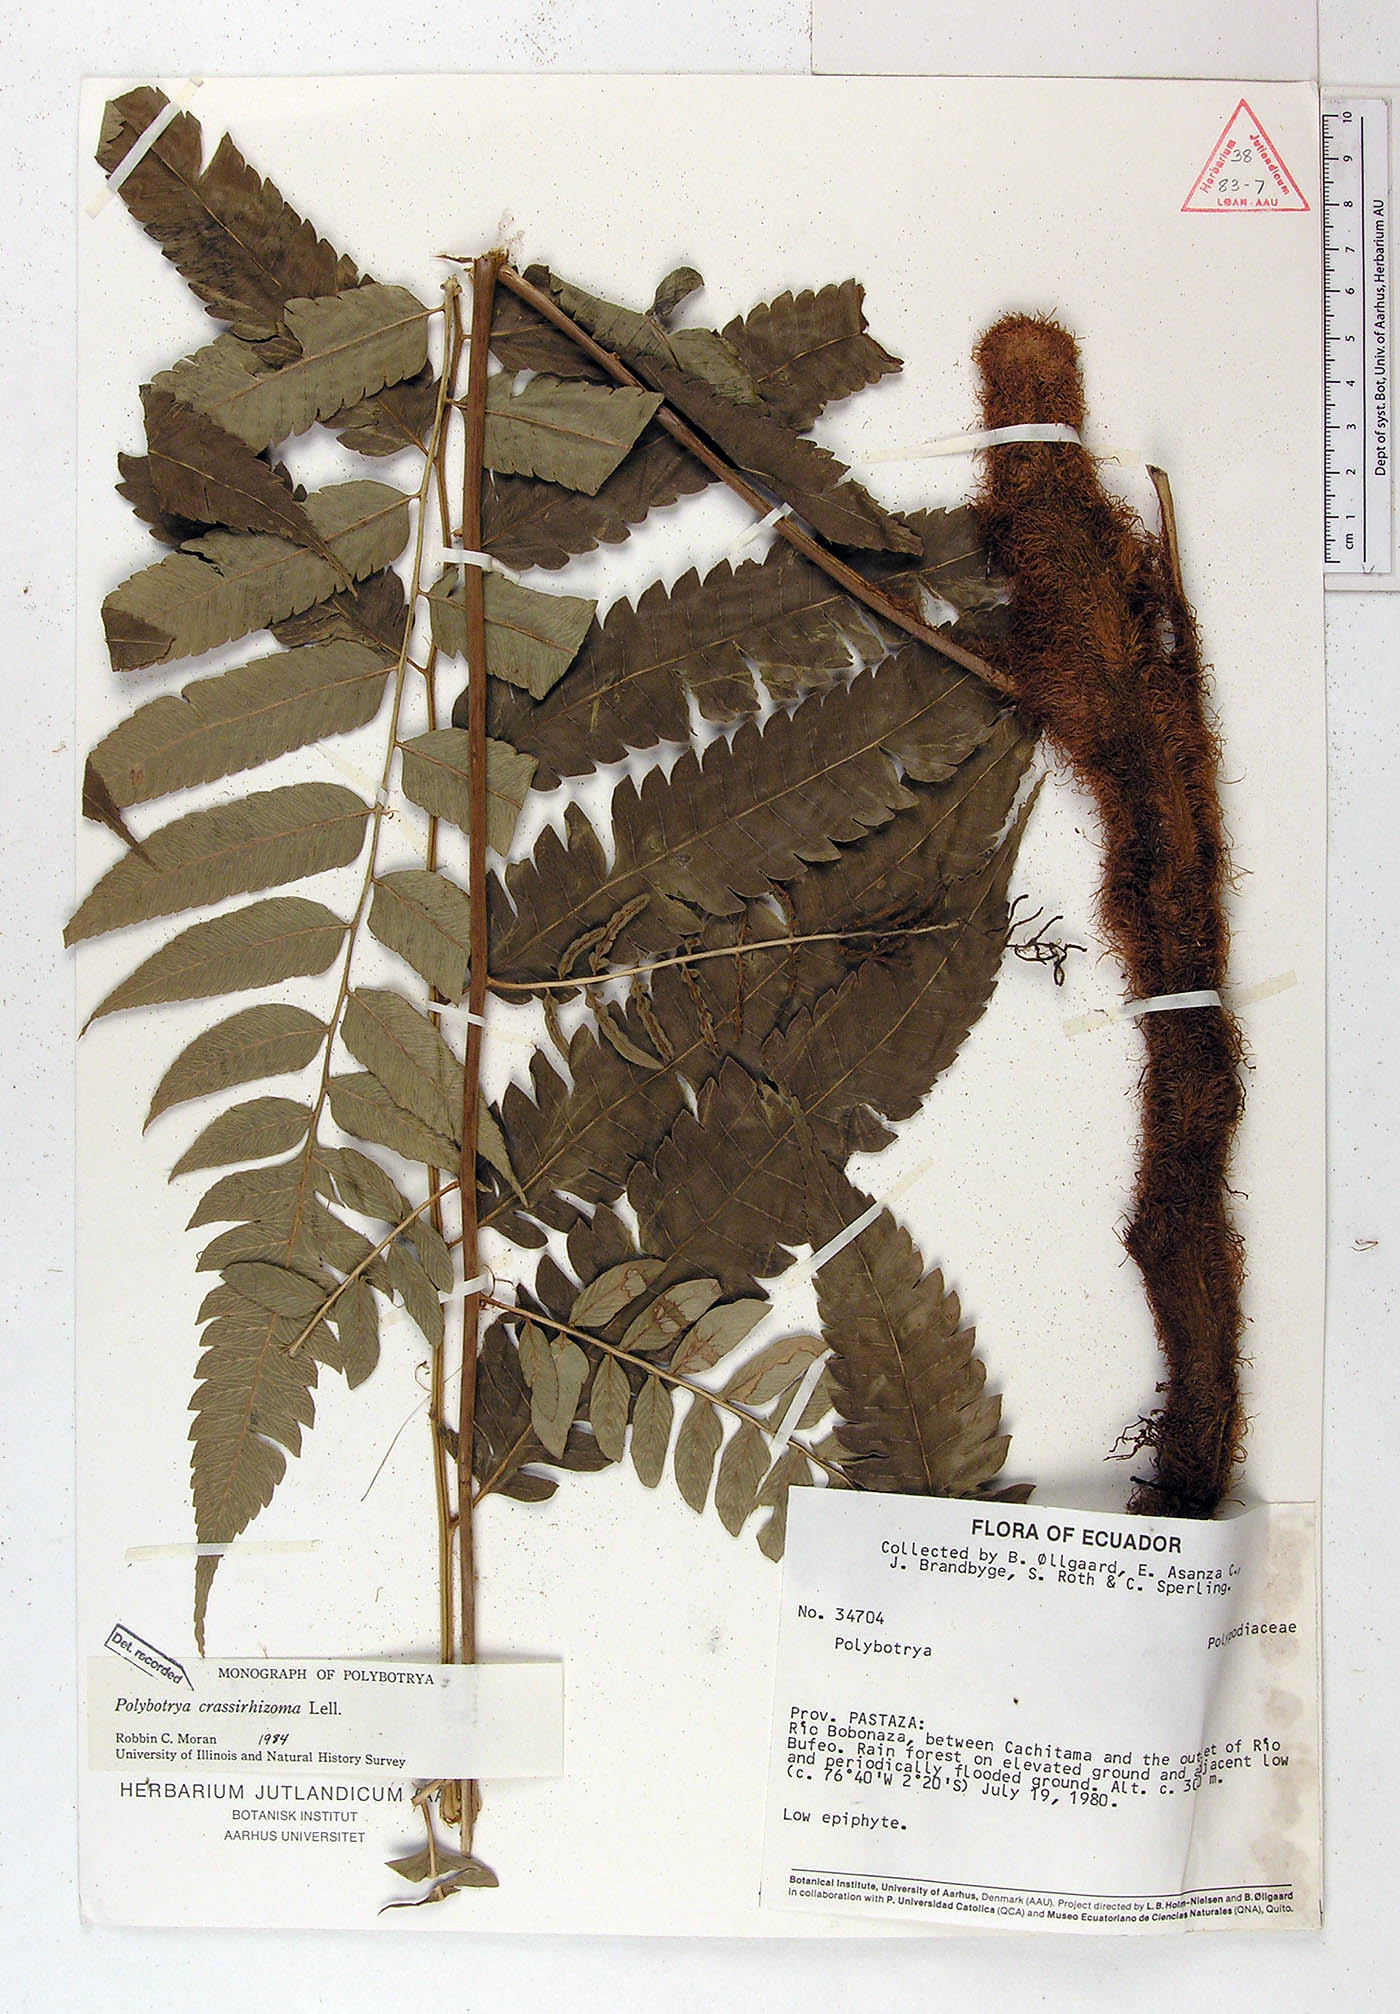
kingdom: Plantae
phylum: Tracheophyta
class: Polypodiopsida
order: Polypodiales
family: Dryopteridaceae
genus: Polybotrya
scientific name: Polybotrya crassirhizoma
